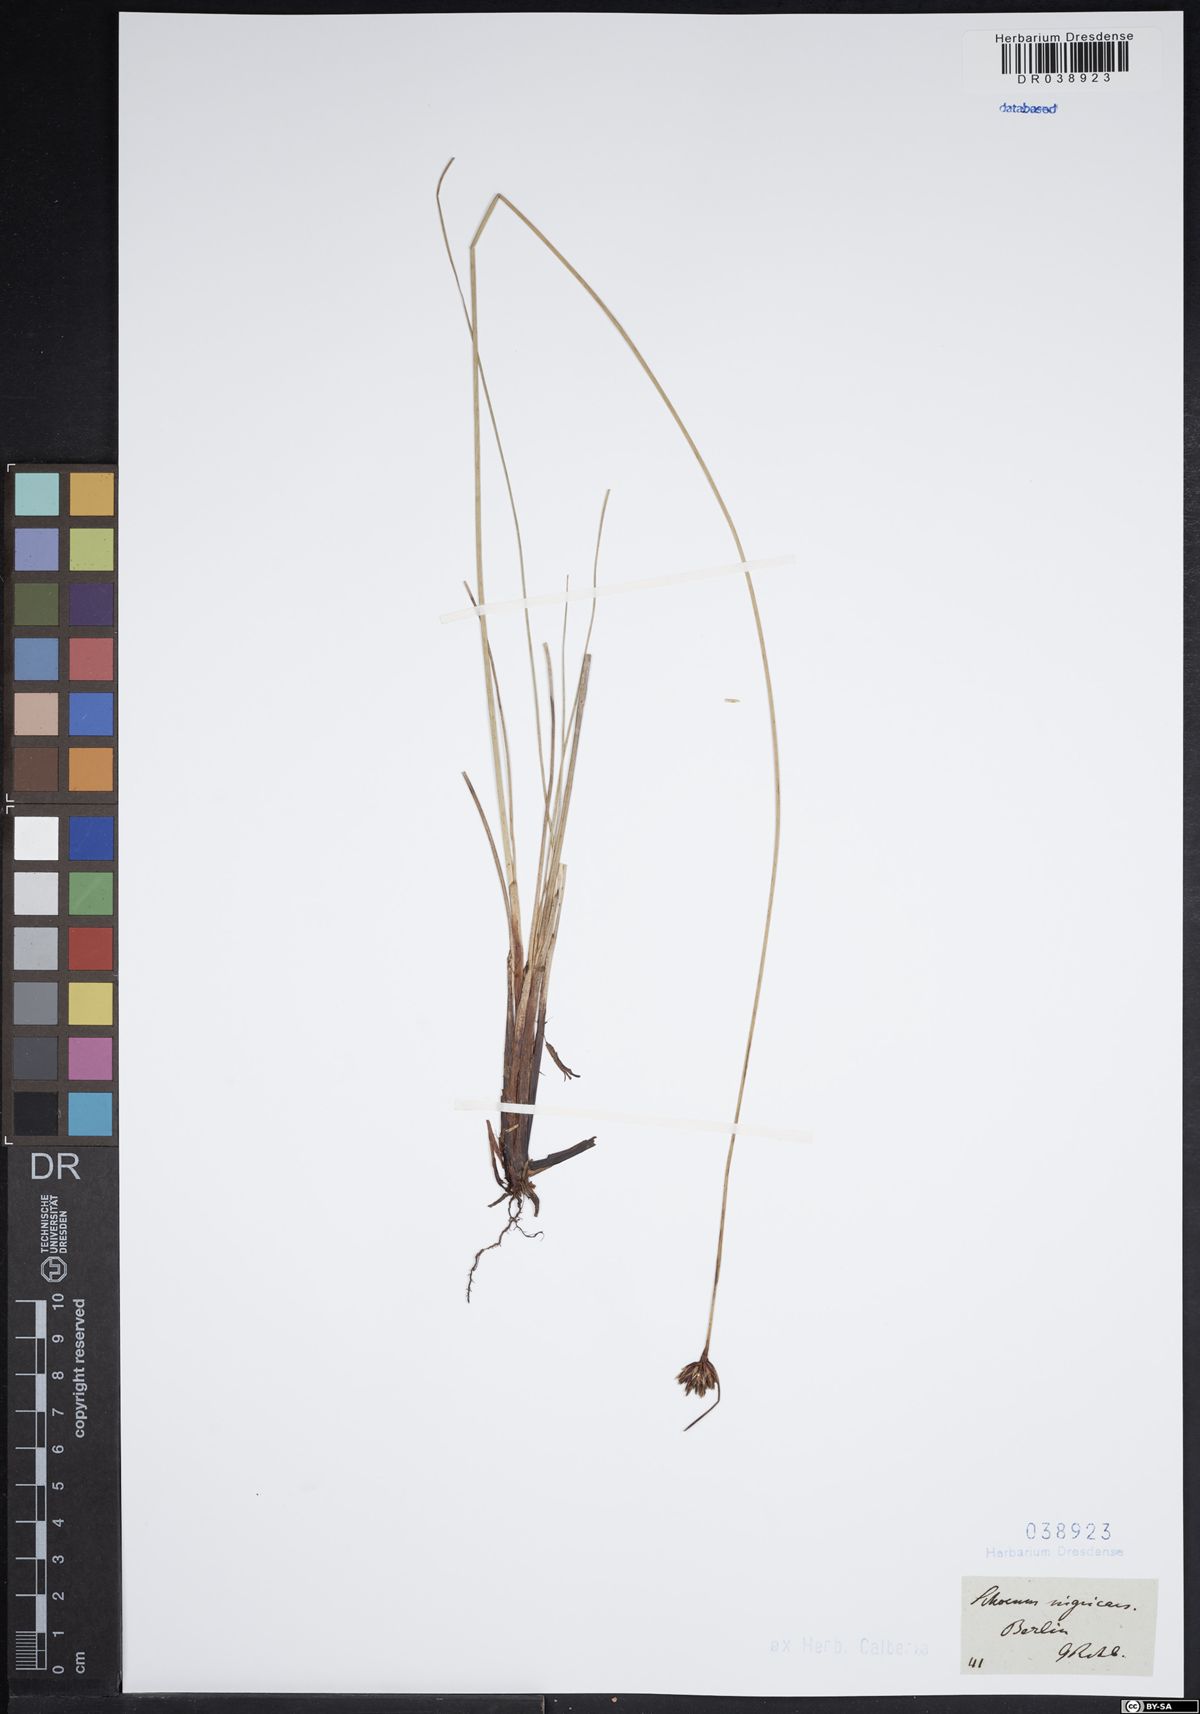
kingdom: Plantae
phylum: Tracheophyta
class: Liliopsida
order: Poales
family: Cyperaceae
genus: Schoenus
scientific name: Schoenus nigricans
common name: Black bog-rush
